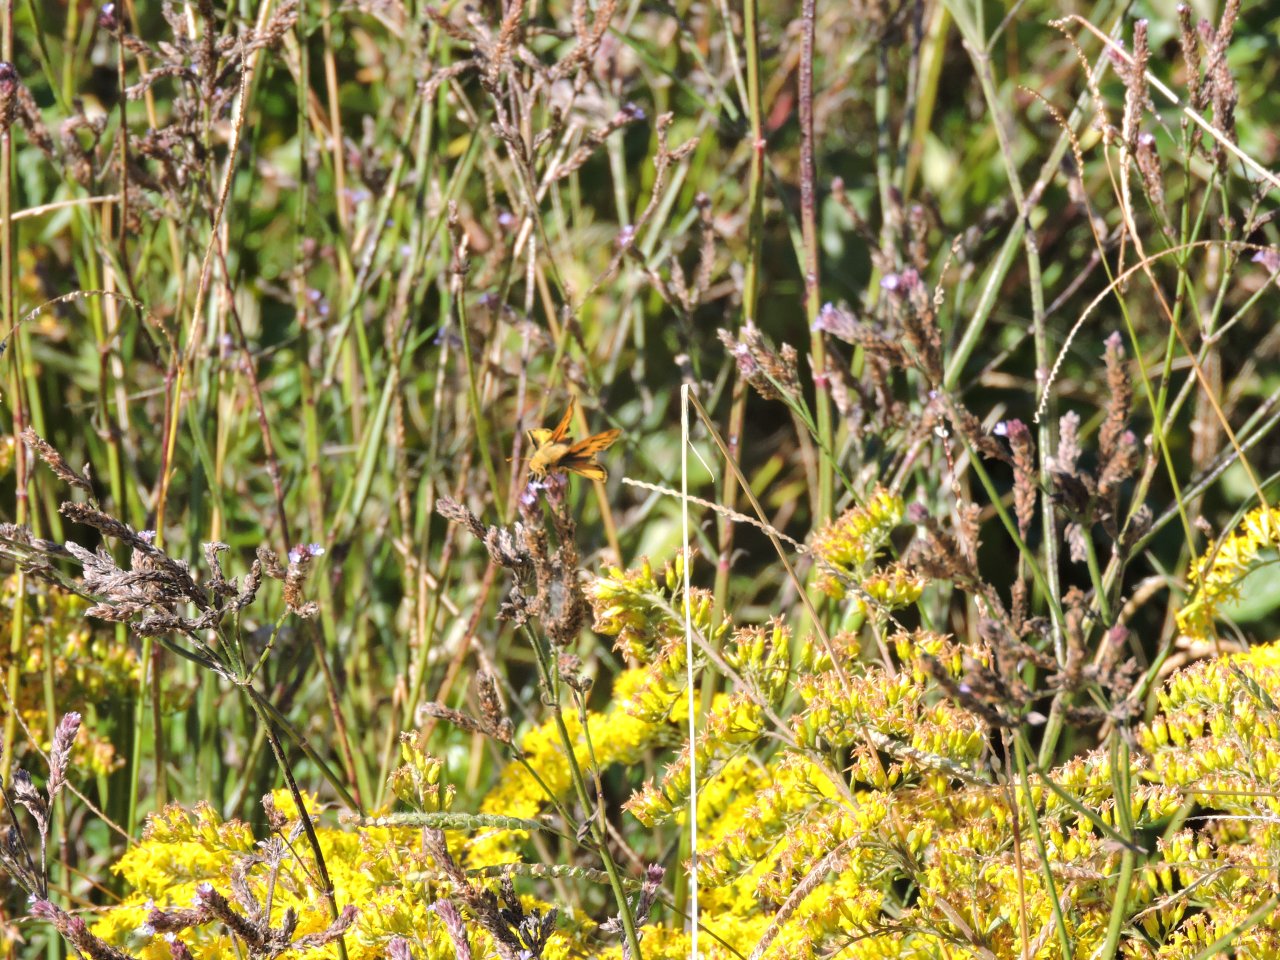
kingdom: Animalia
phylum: Arthropoda
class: Insecta
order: Lepidoptera
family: Hesperiidae
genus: Polites
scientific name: Polites vibex
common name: Whirlabout
